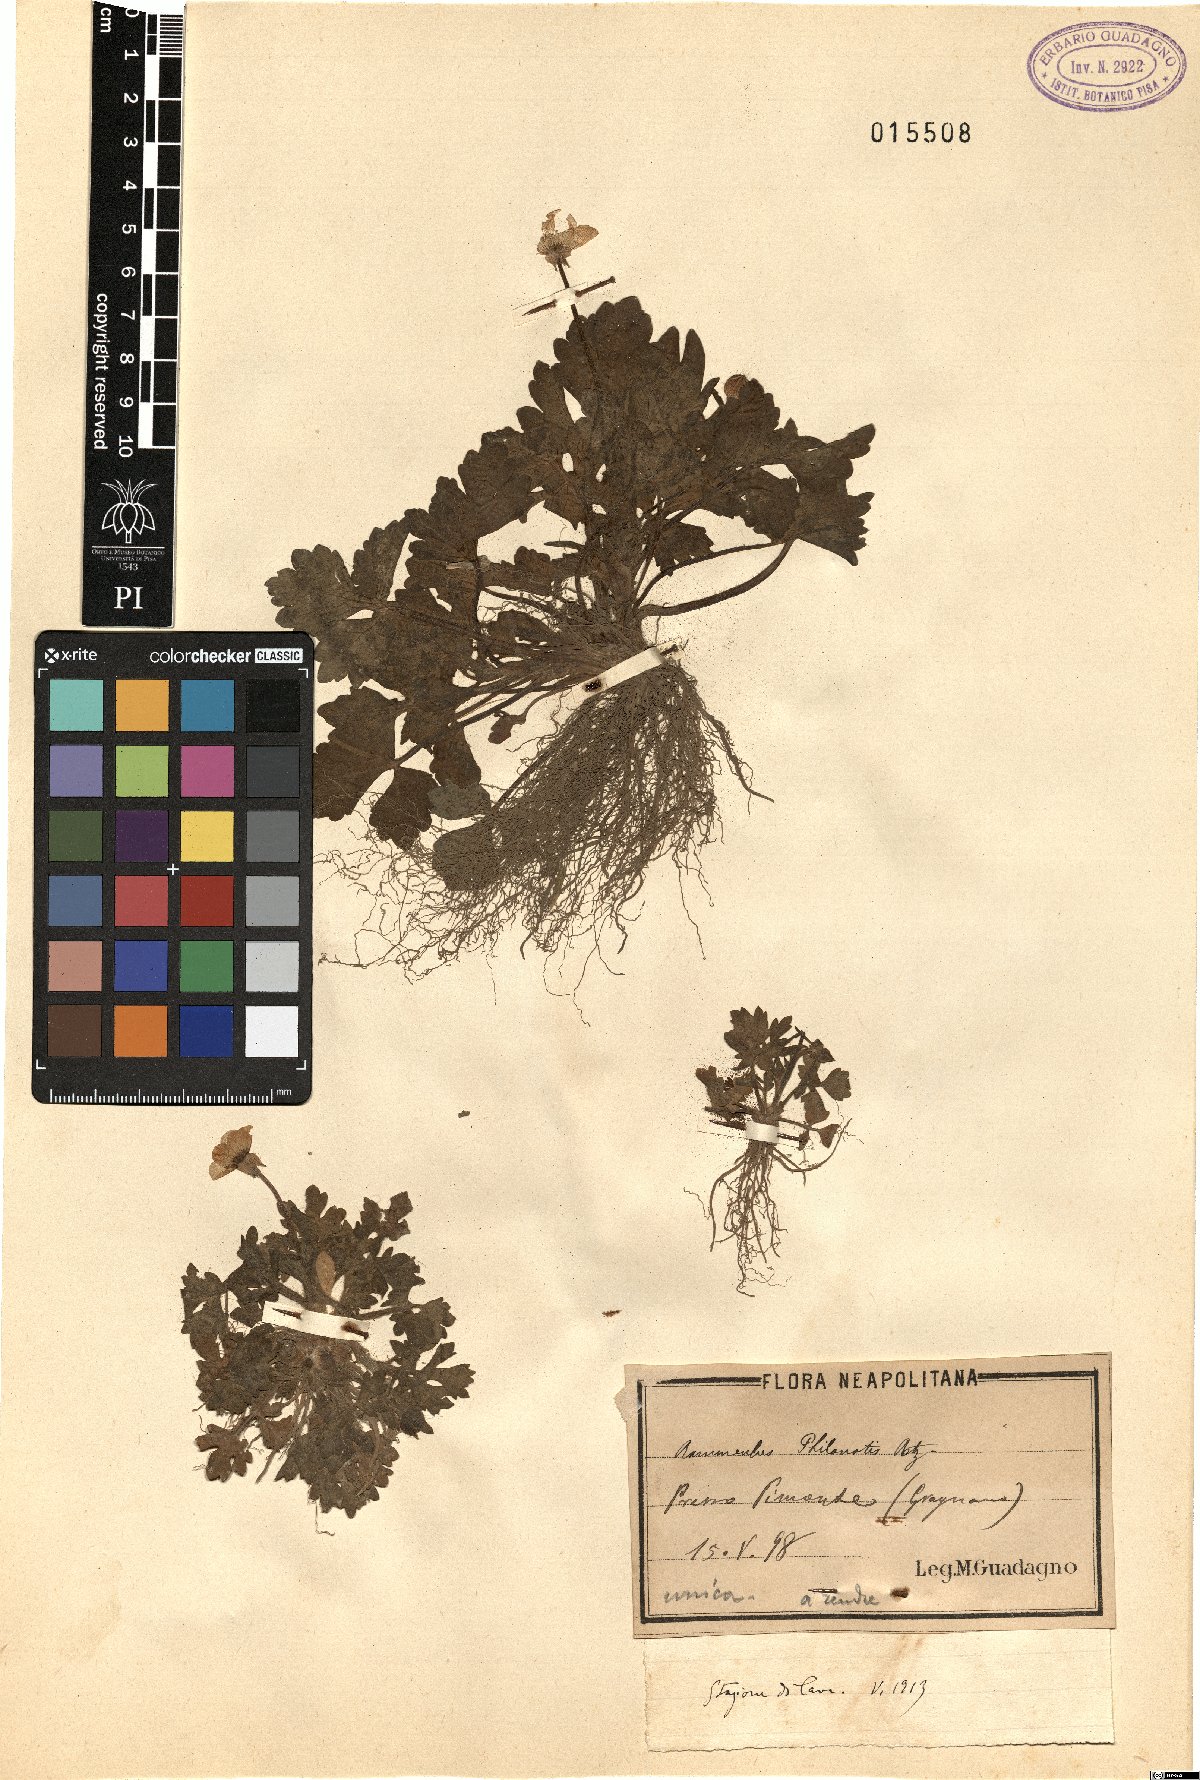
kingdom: Plantae
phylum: Tracheophyta
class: Magnoliopsida
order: Ranunculales
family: Ranunculaceae
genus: Ranunculus
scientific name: Ranunculus sardous
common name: Hairy buttercup
